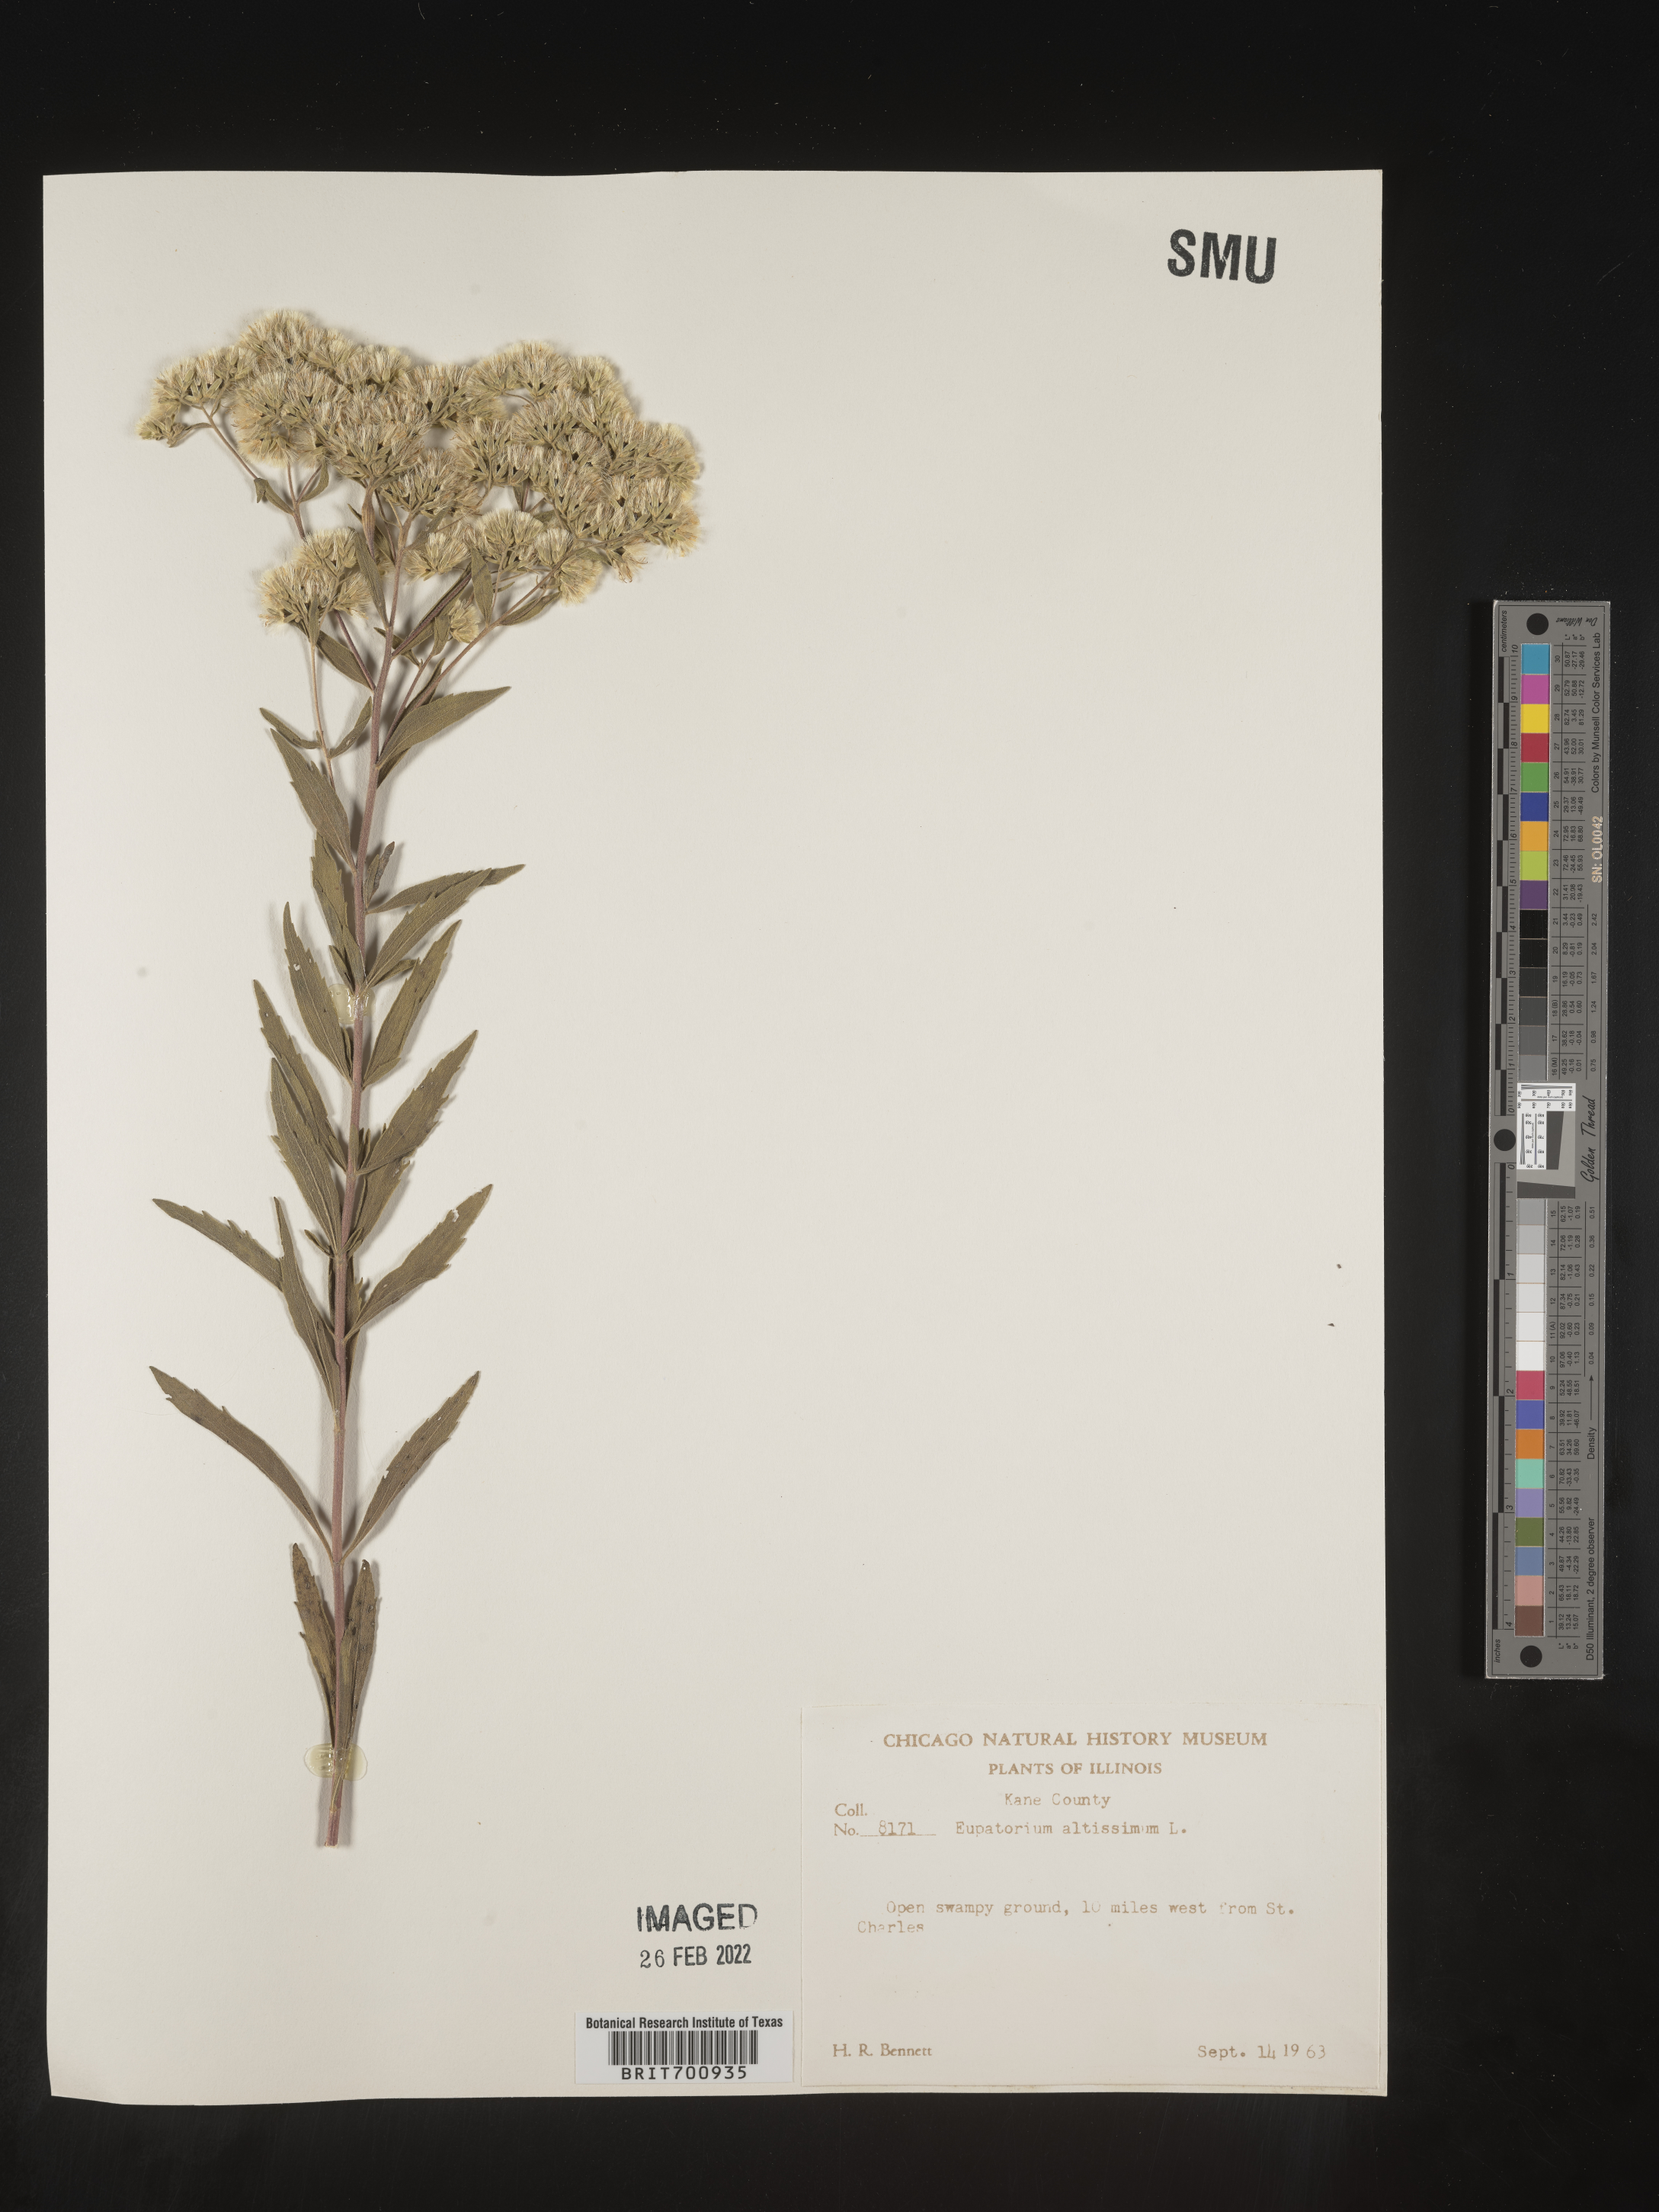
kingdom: Plantae
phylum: Tracheophyta
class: Magnoliopsida
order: Asterales
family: Asteraceae
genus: Eupatorium
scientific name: Eupatorium altissimum
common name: Tall thoroughwort
